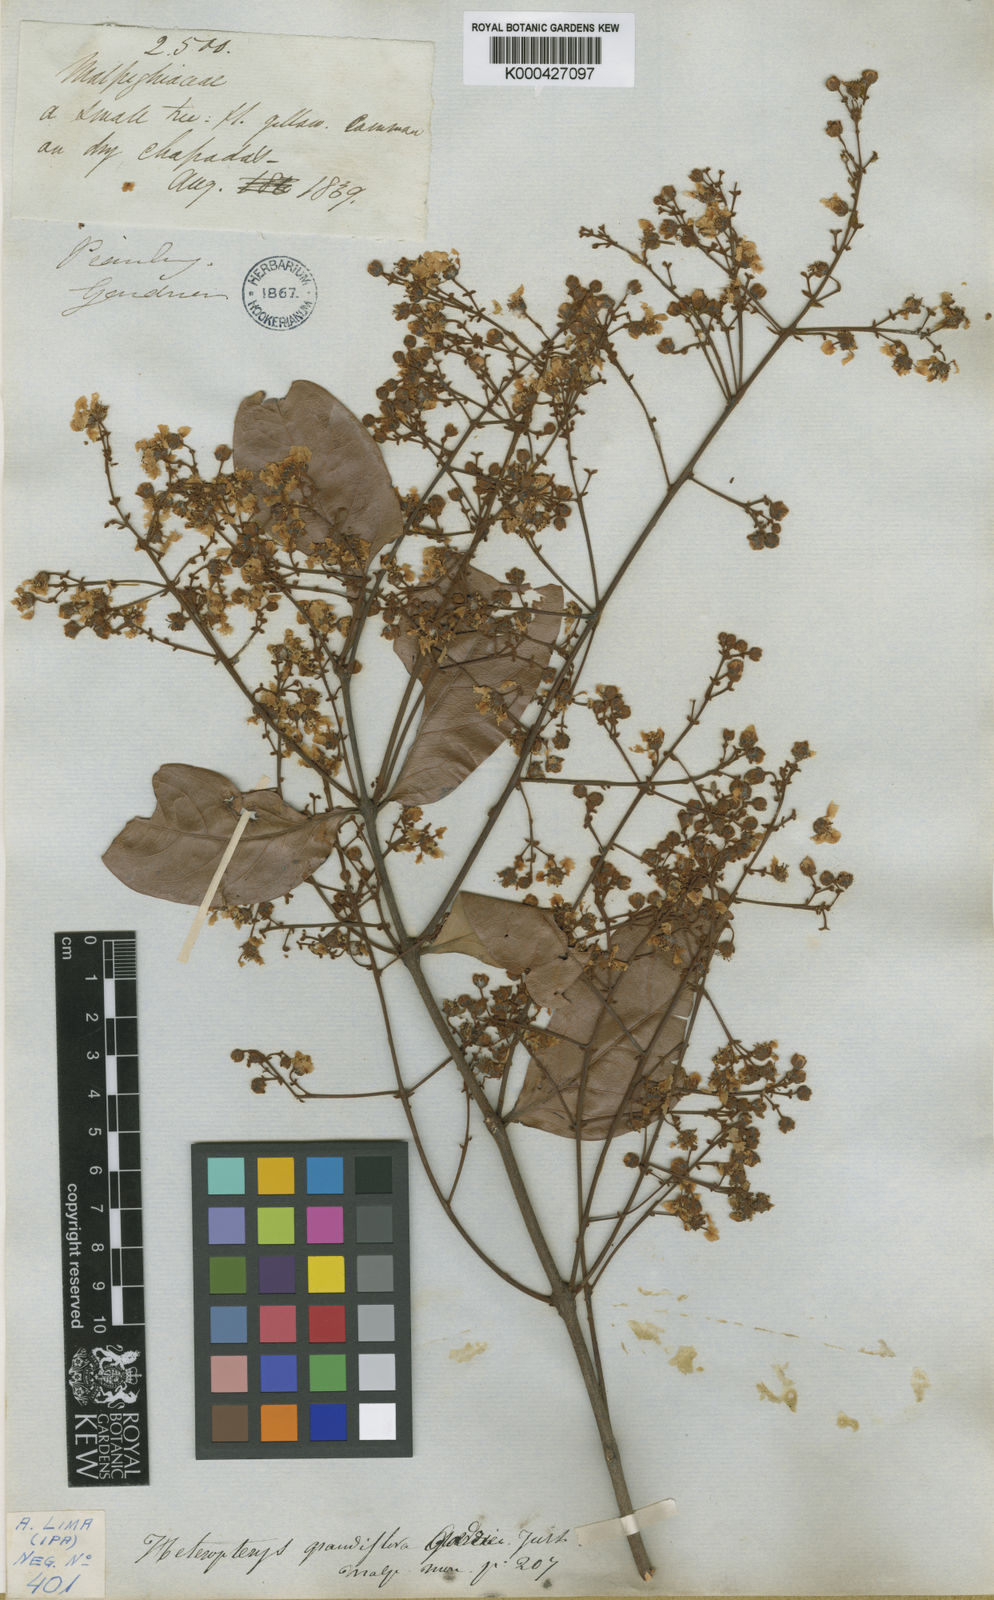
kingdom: Plantae
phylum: Tracheophyta
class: Magnoliopsida
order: Malpighiales
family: Malpighiaceae
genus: Heteropterys
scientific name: Heteropterys grandiflora
